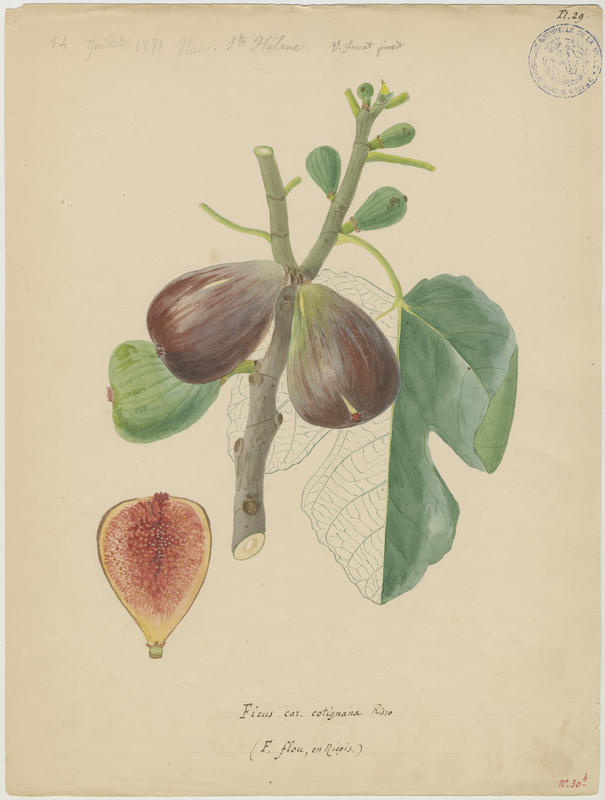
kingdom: Plantae
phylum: Tracheophyta
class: Magnoliopsida
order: Rosales
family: Moraceae
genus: Ficus
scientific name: Ficus carica
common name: Fig
